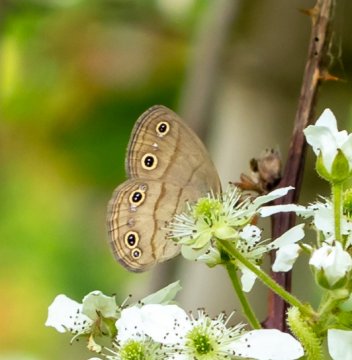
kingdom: Animalia
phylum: Arthropoda
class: Insecta
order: Lepidoptera
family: Nymphalidae
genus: Euptychia
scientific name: Euptychia cymela
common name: Little Wood Satyr
